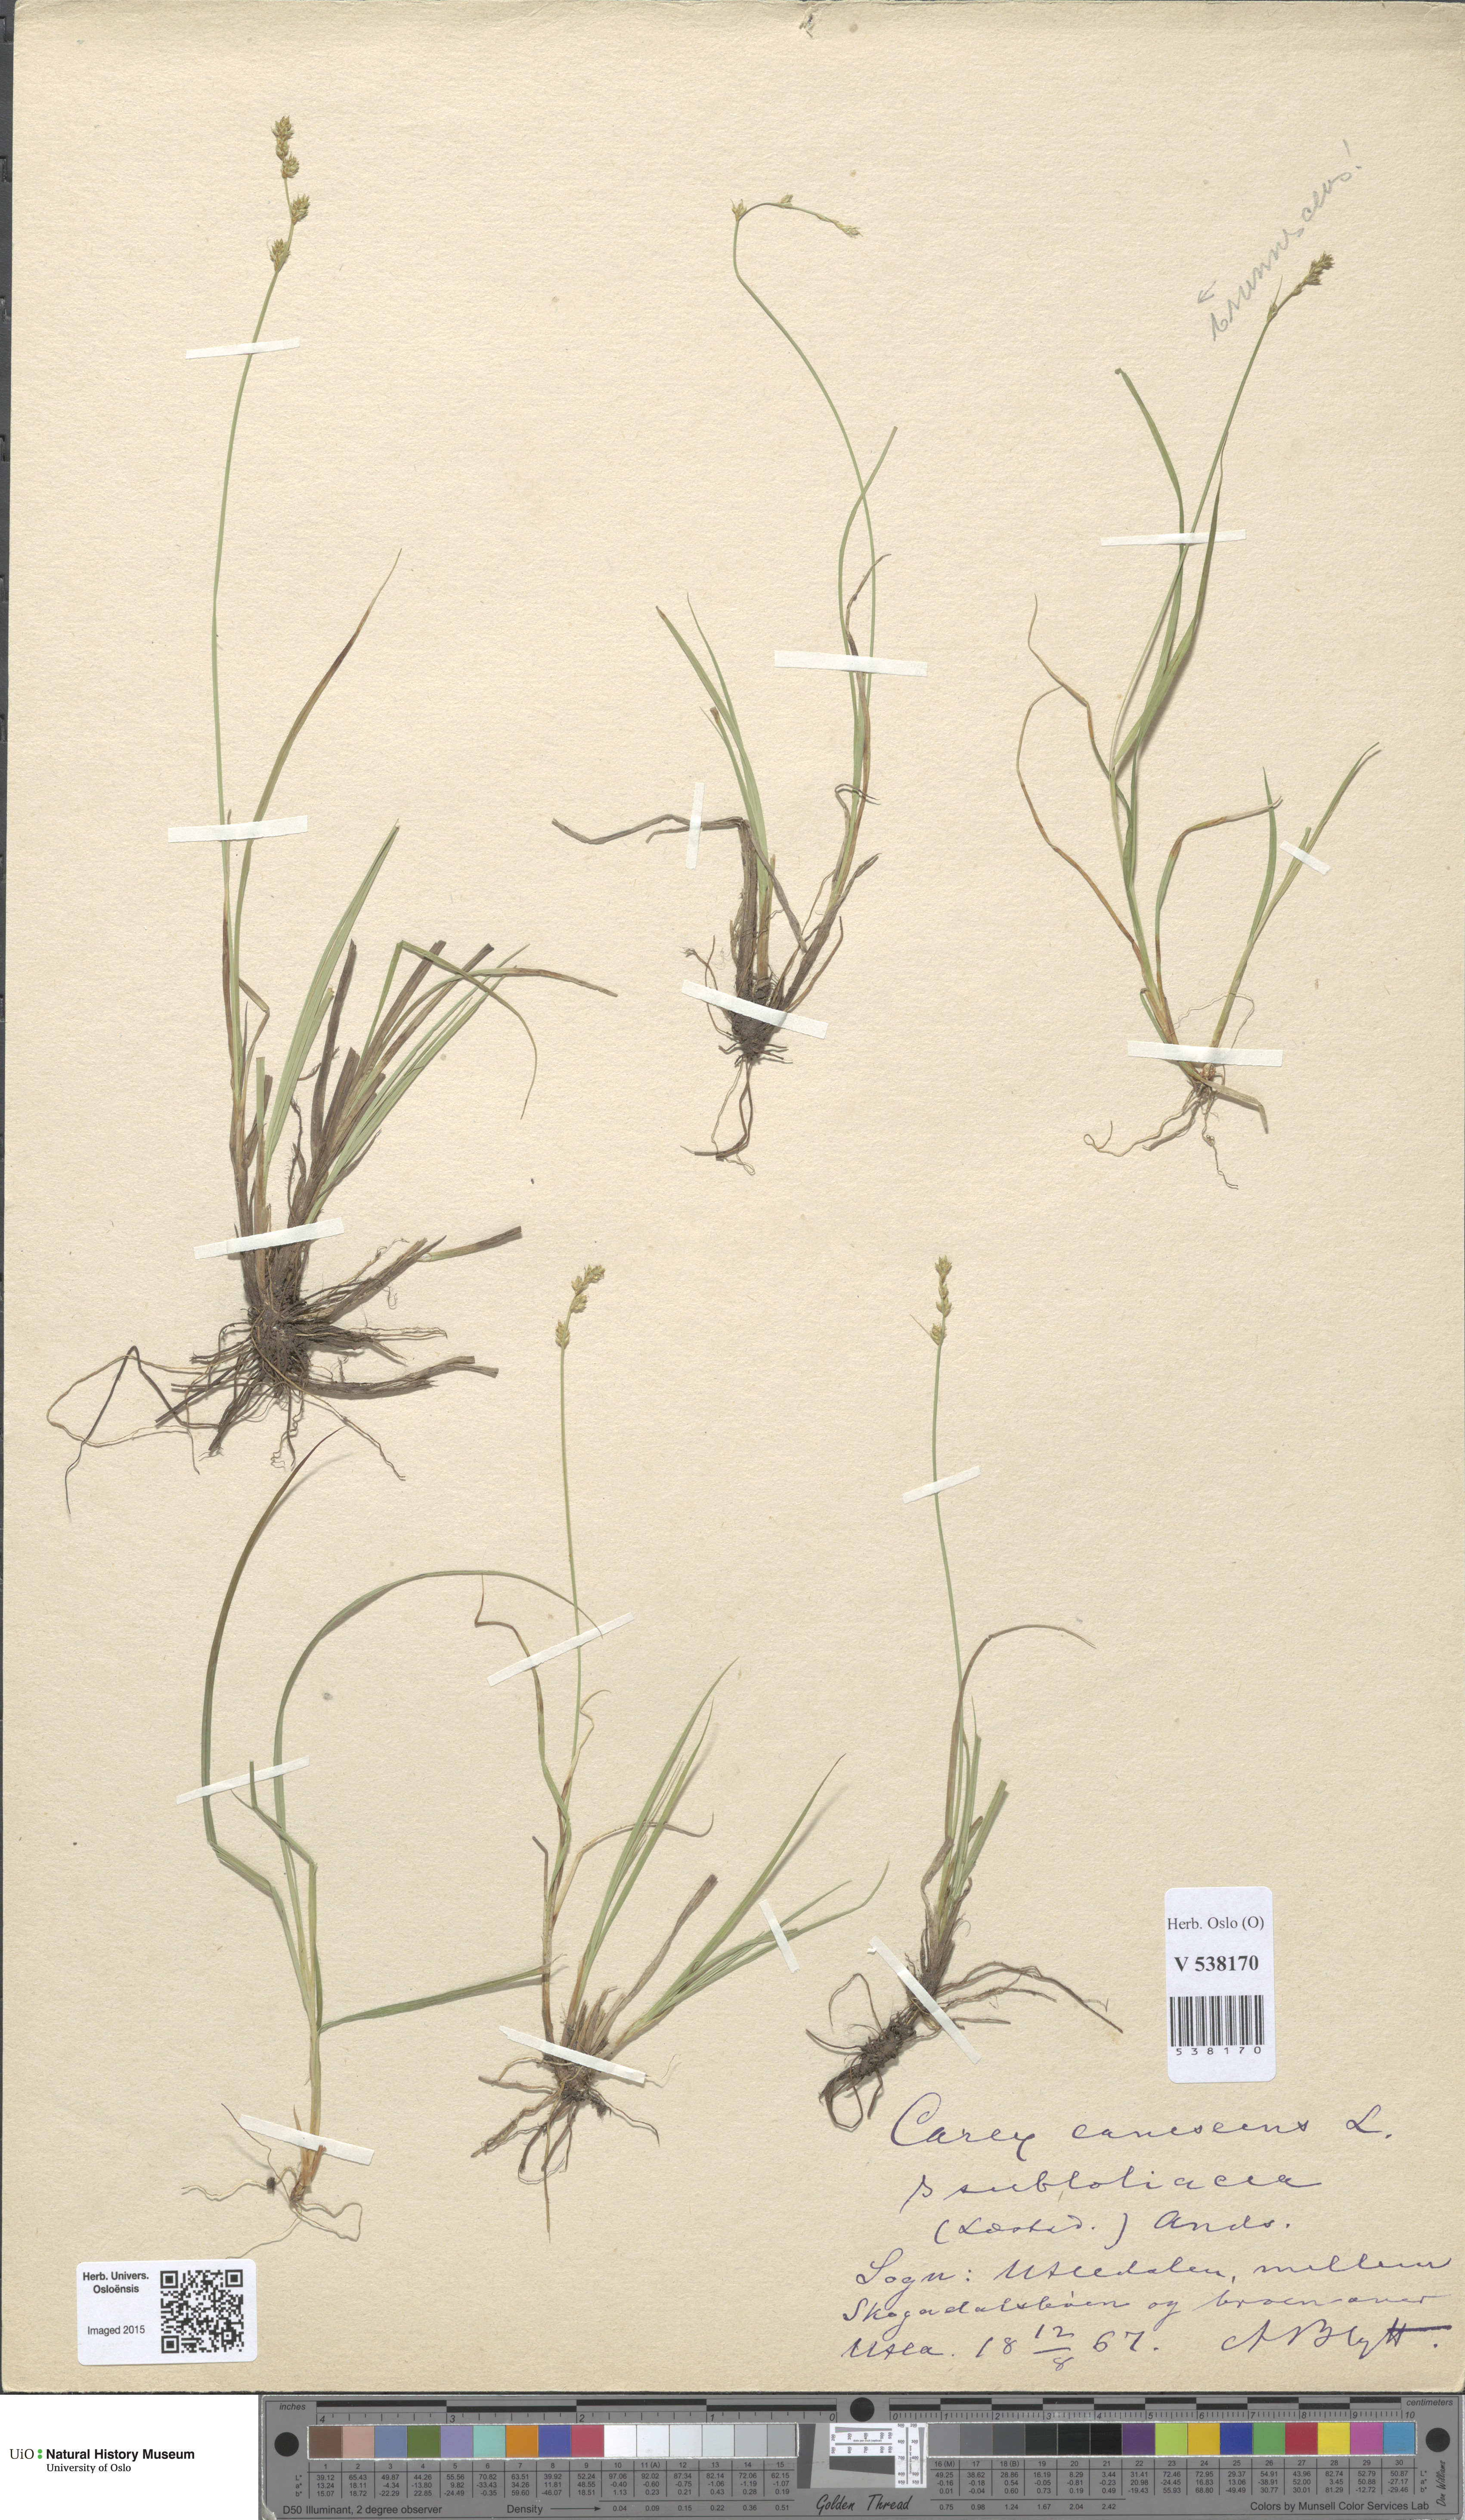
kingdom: Plantae
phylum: Tracheophyta
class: Liliopsida
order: Poales
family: Cyperaceae
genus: Carex
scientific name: Carex canescens
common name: White sedge
